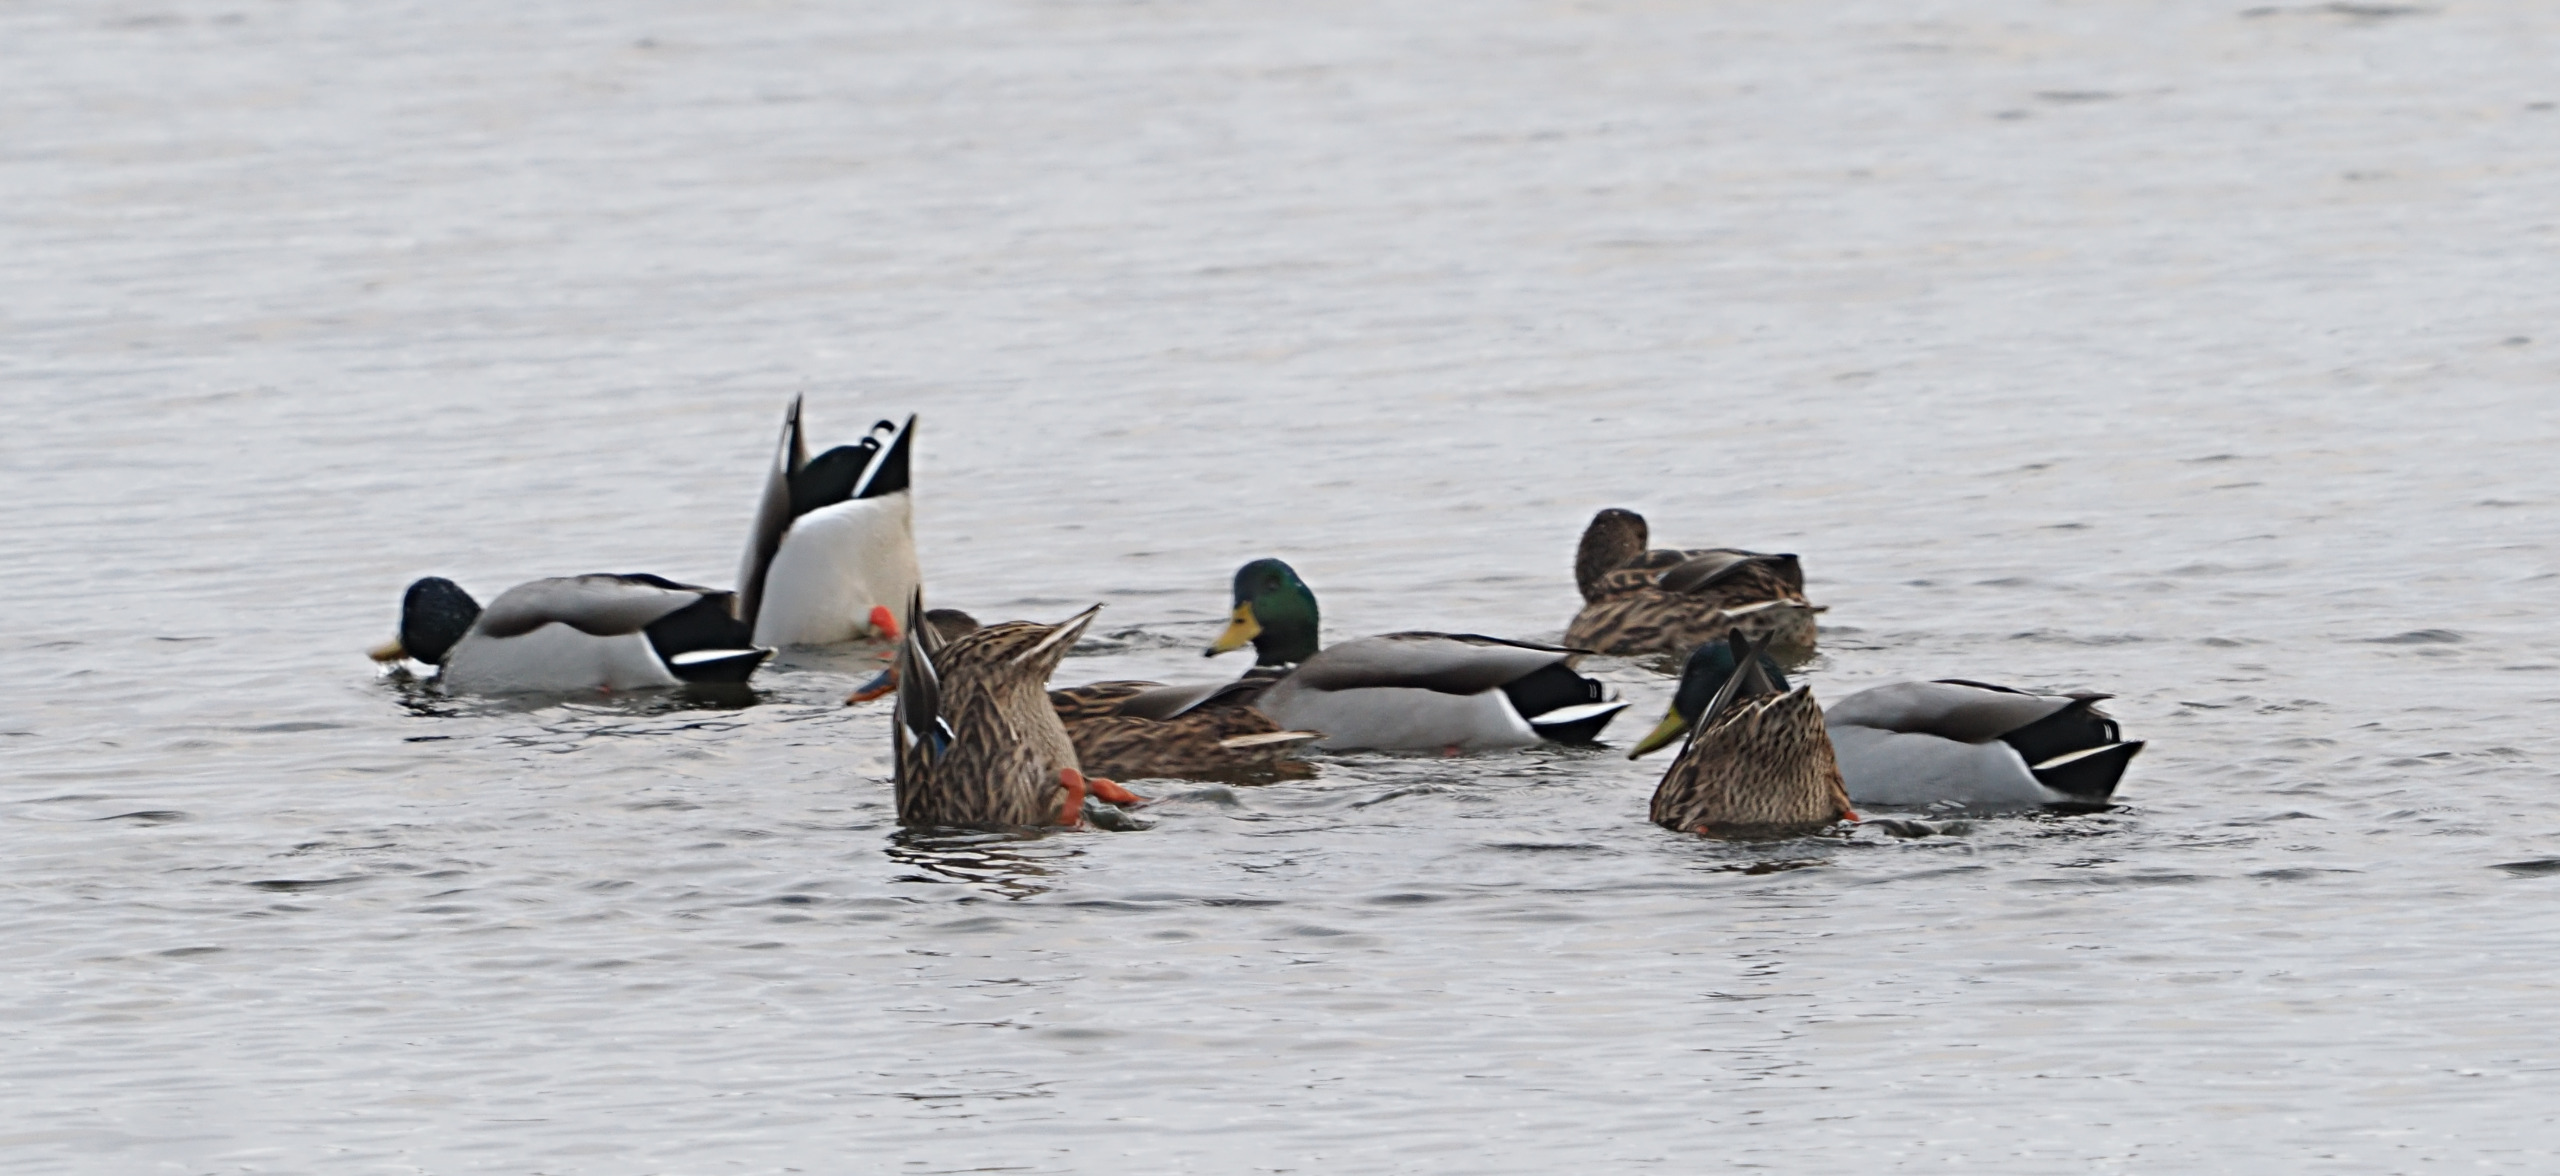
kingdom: Animalia
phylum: Chordata
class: Aves
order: Anseriformes
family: Anatidae
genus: Anas
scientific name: Anas platyrhynchos
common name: Gråand
